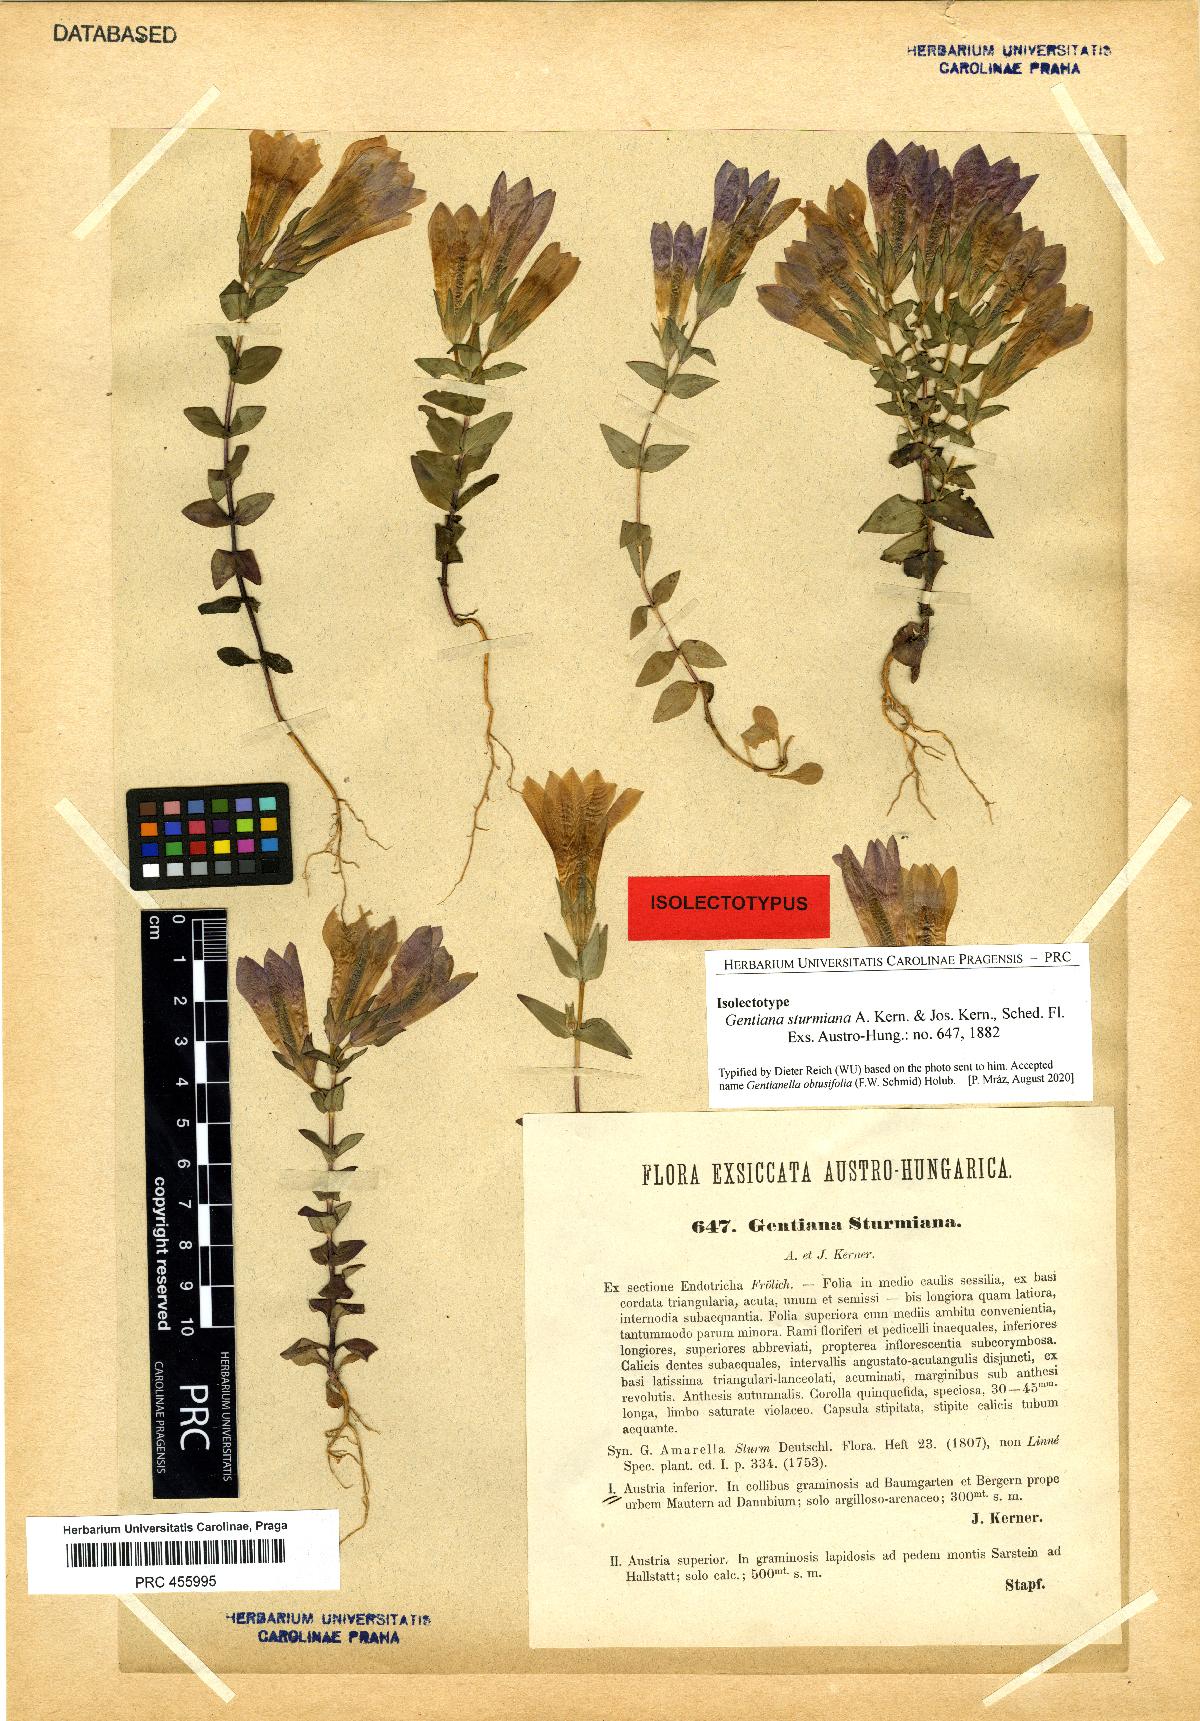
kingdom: Plantae
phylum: Tracheophyta
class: Magnoliopsida
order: Gentianales
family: Gentianaceae
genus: Gentianella
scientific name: Gentianella obtusifolia
